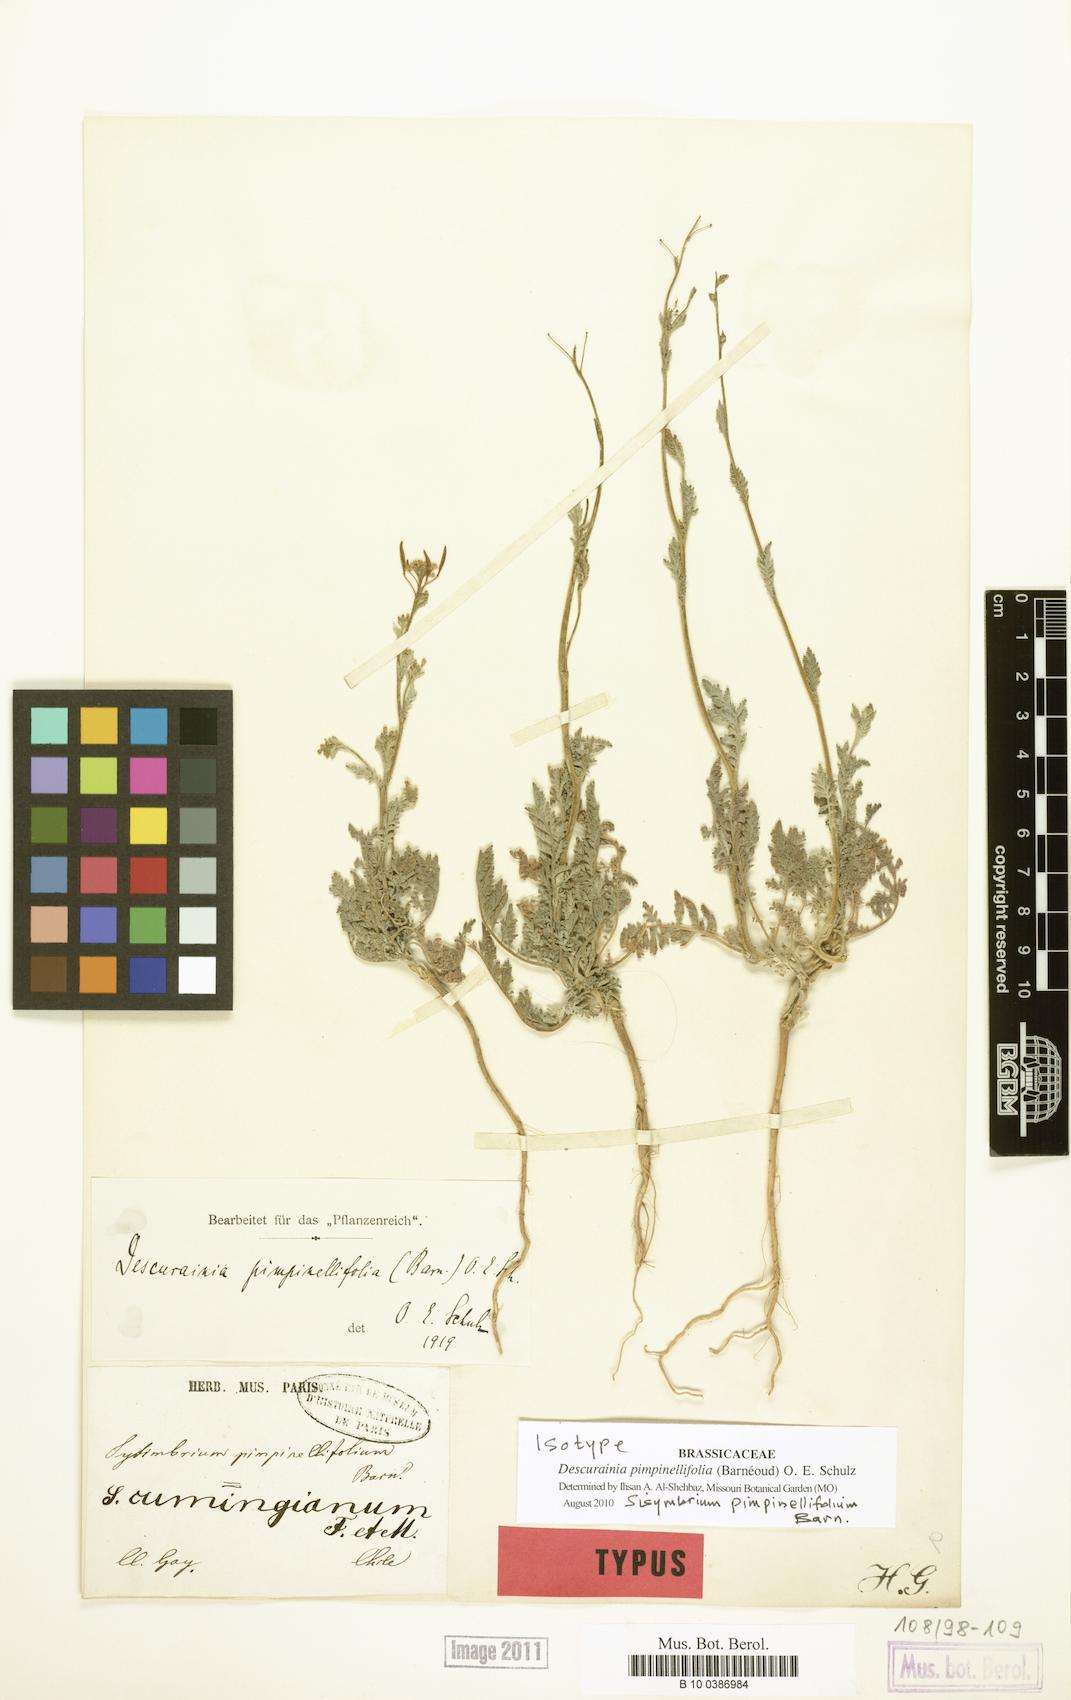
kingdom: Plantae
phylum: Tracheophyta
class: Magnoliopsida
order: Brassicales
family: Brassicaceae
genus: Descurainia
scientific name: Descurainia pimpinellifolia
